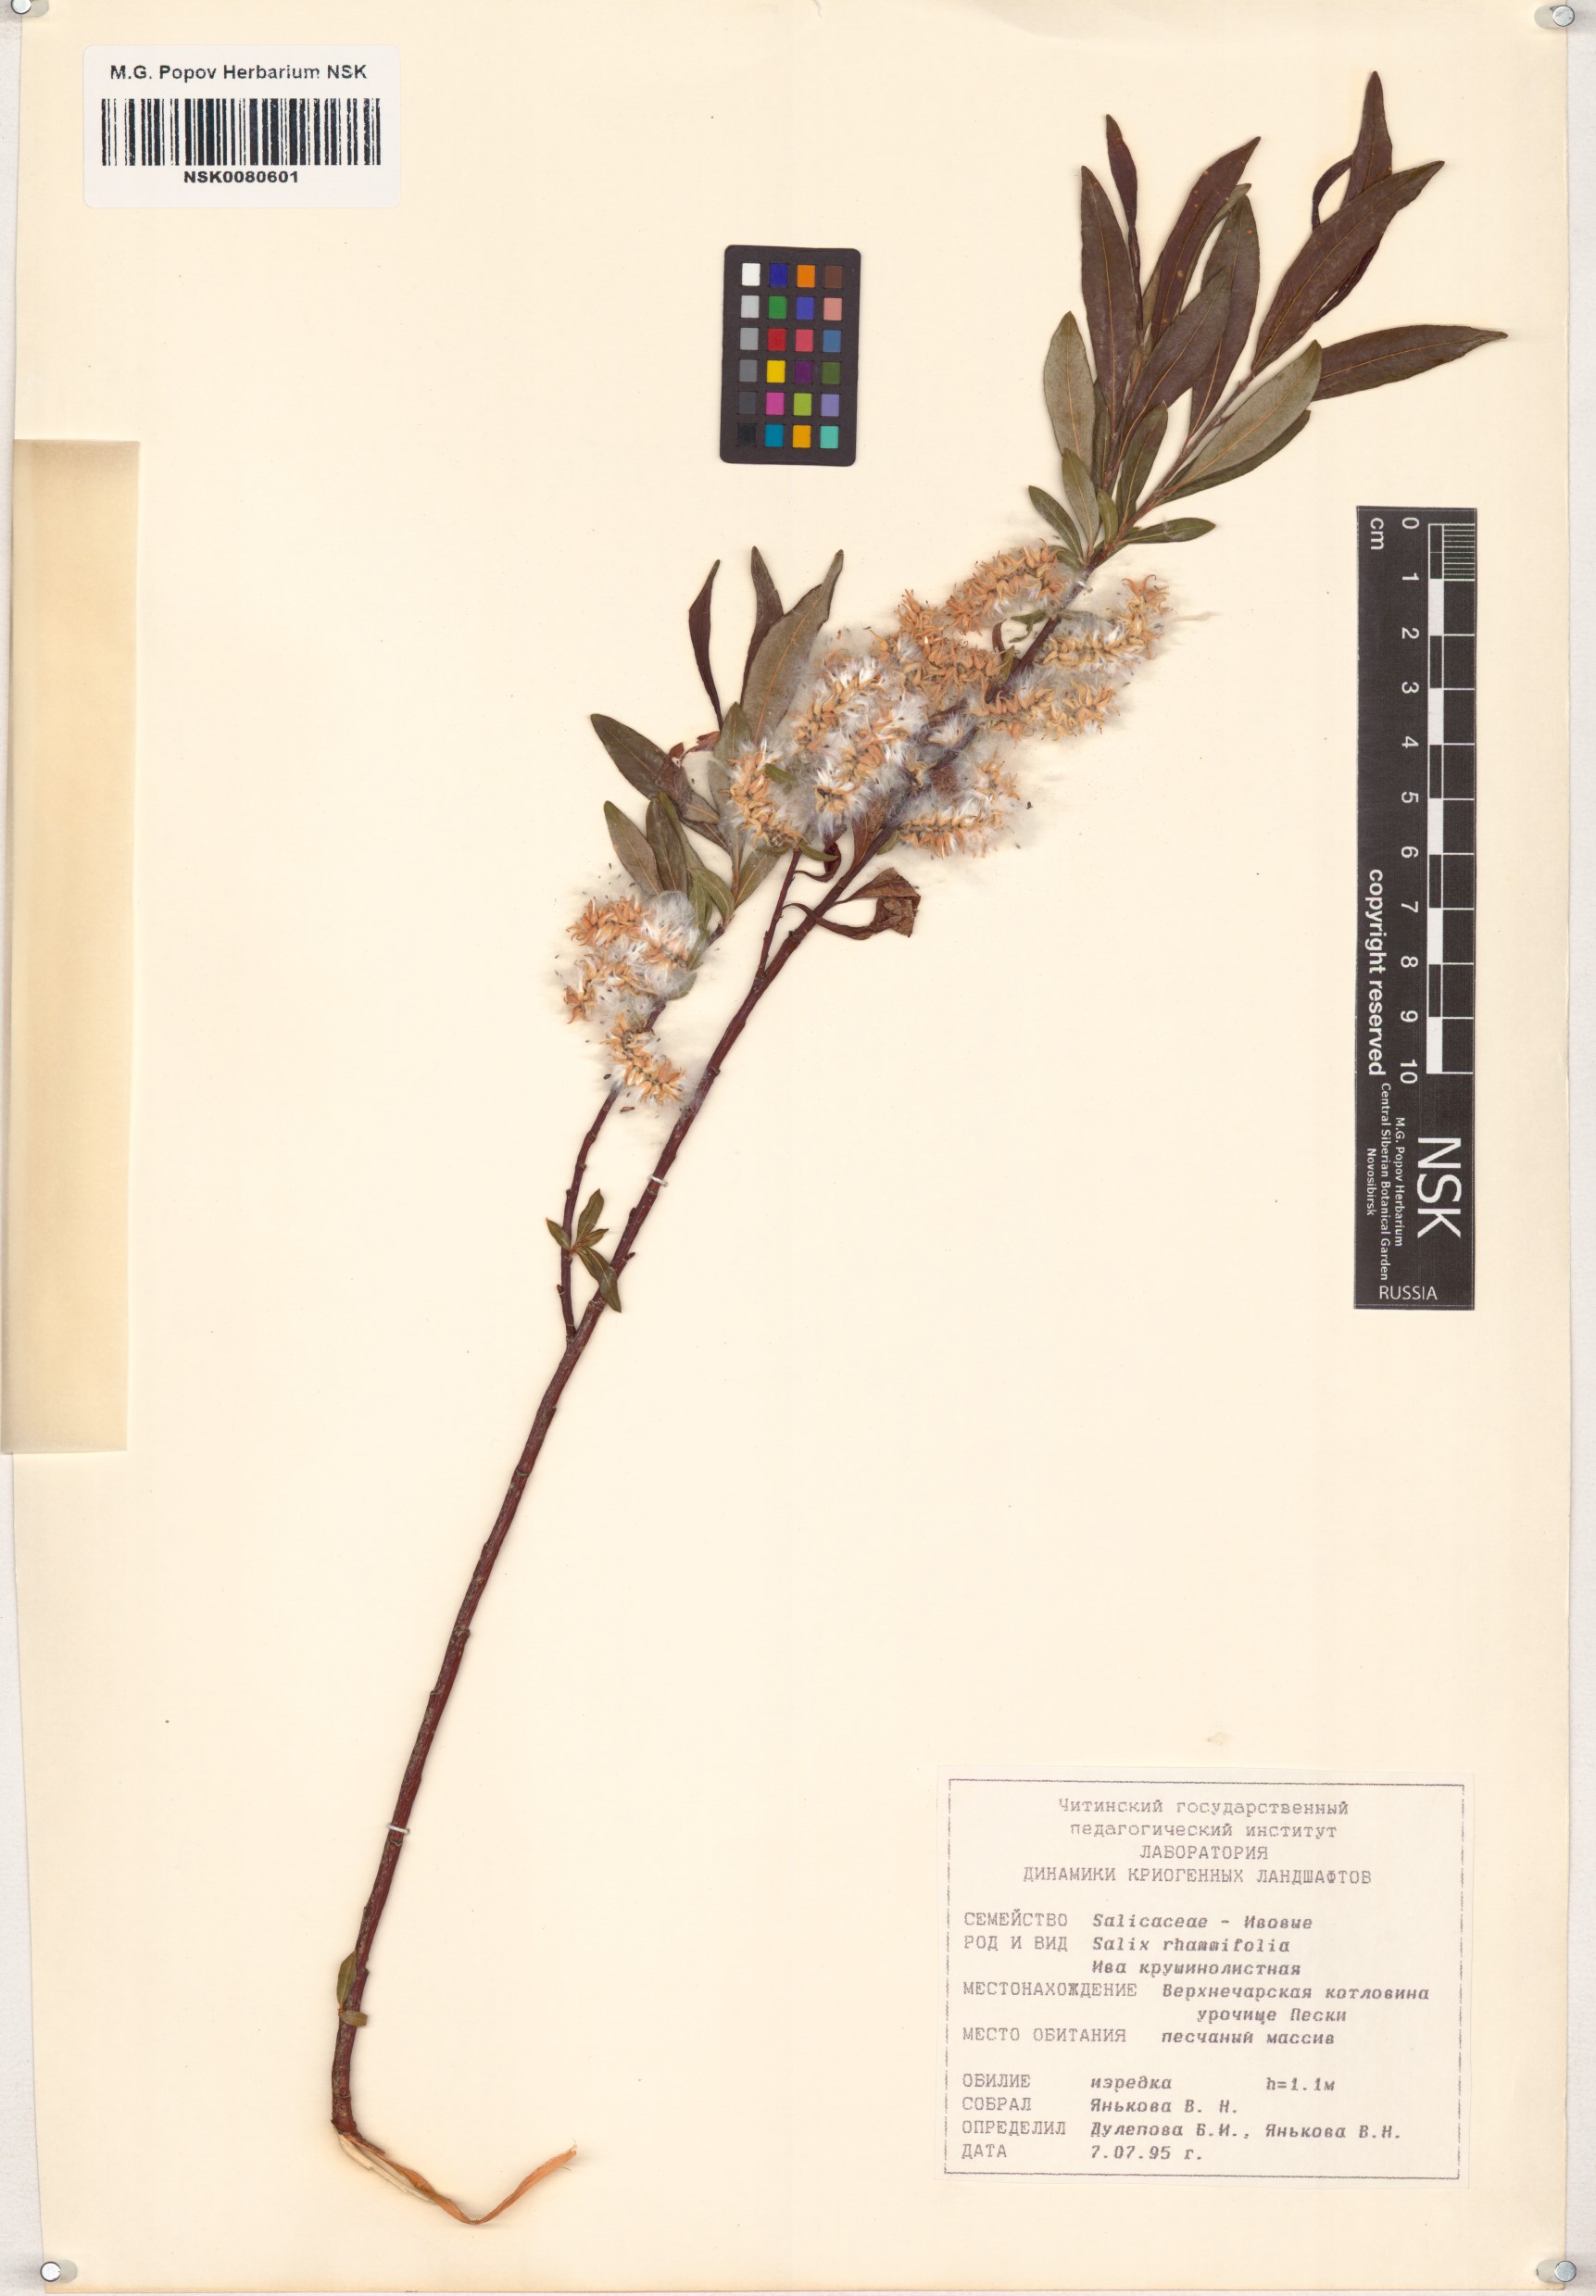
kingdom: Plantae
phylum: Tracheophyta
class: Magnoliopsida
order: Malpighiales
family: Salicaceae
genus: Salix
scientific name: Salix rhamnifolia
